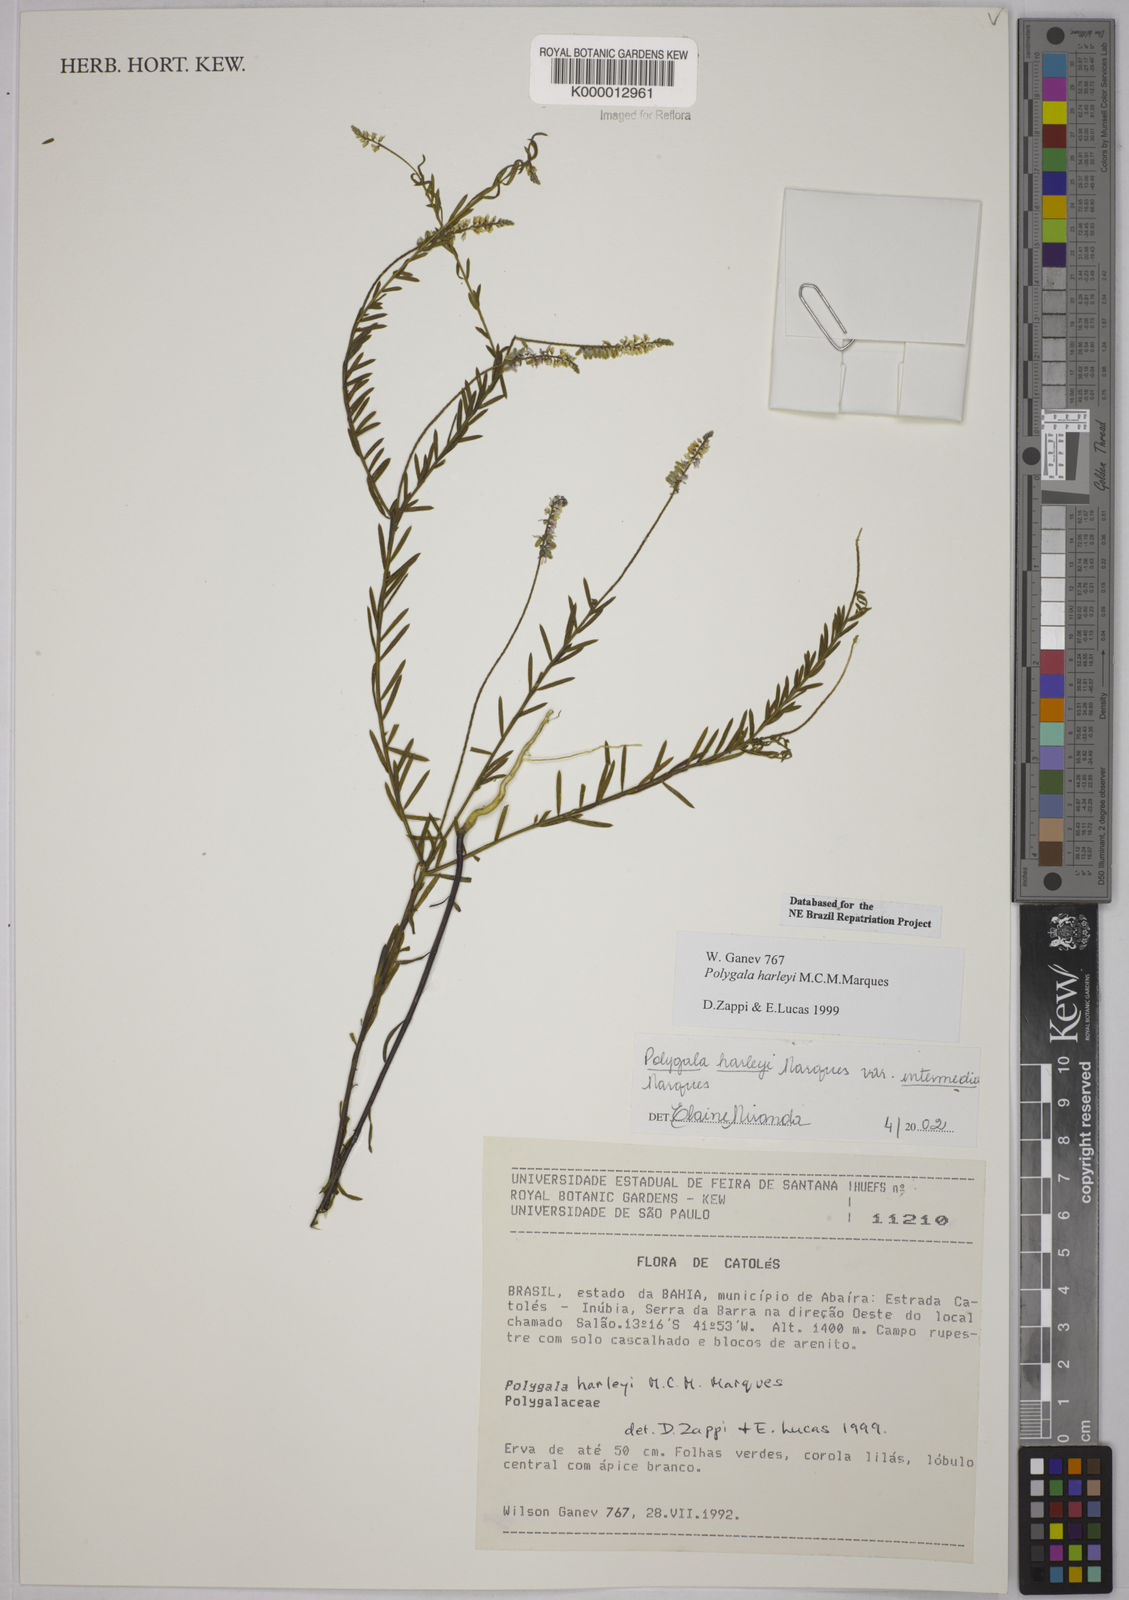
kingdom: Plantae
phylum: Tracheophyta
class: Magnoliopsida
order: Fabales
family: Polygalaceae
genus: Polygala
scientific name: Polygala
